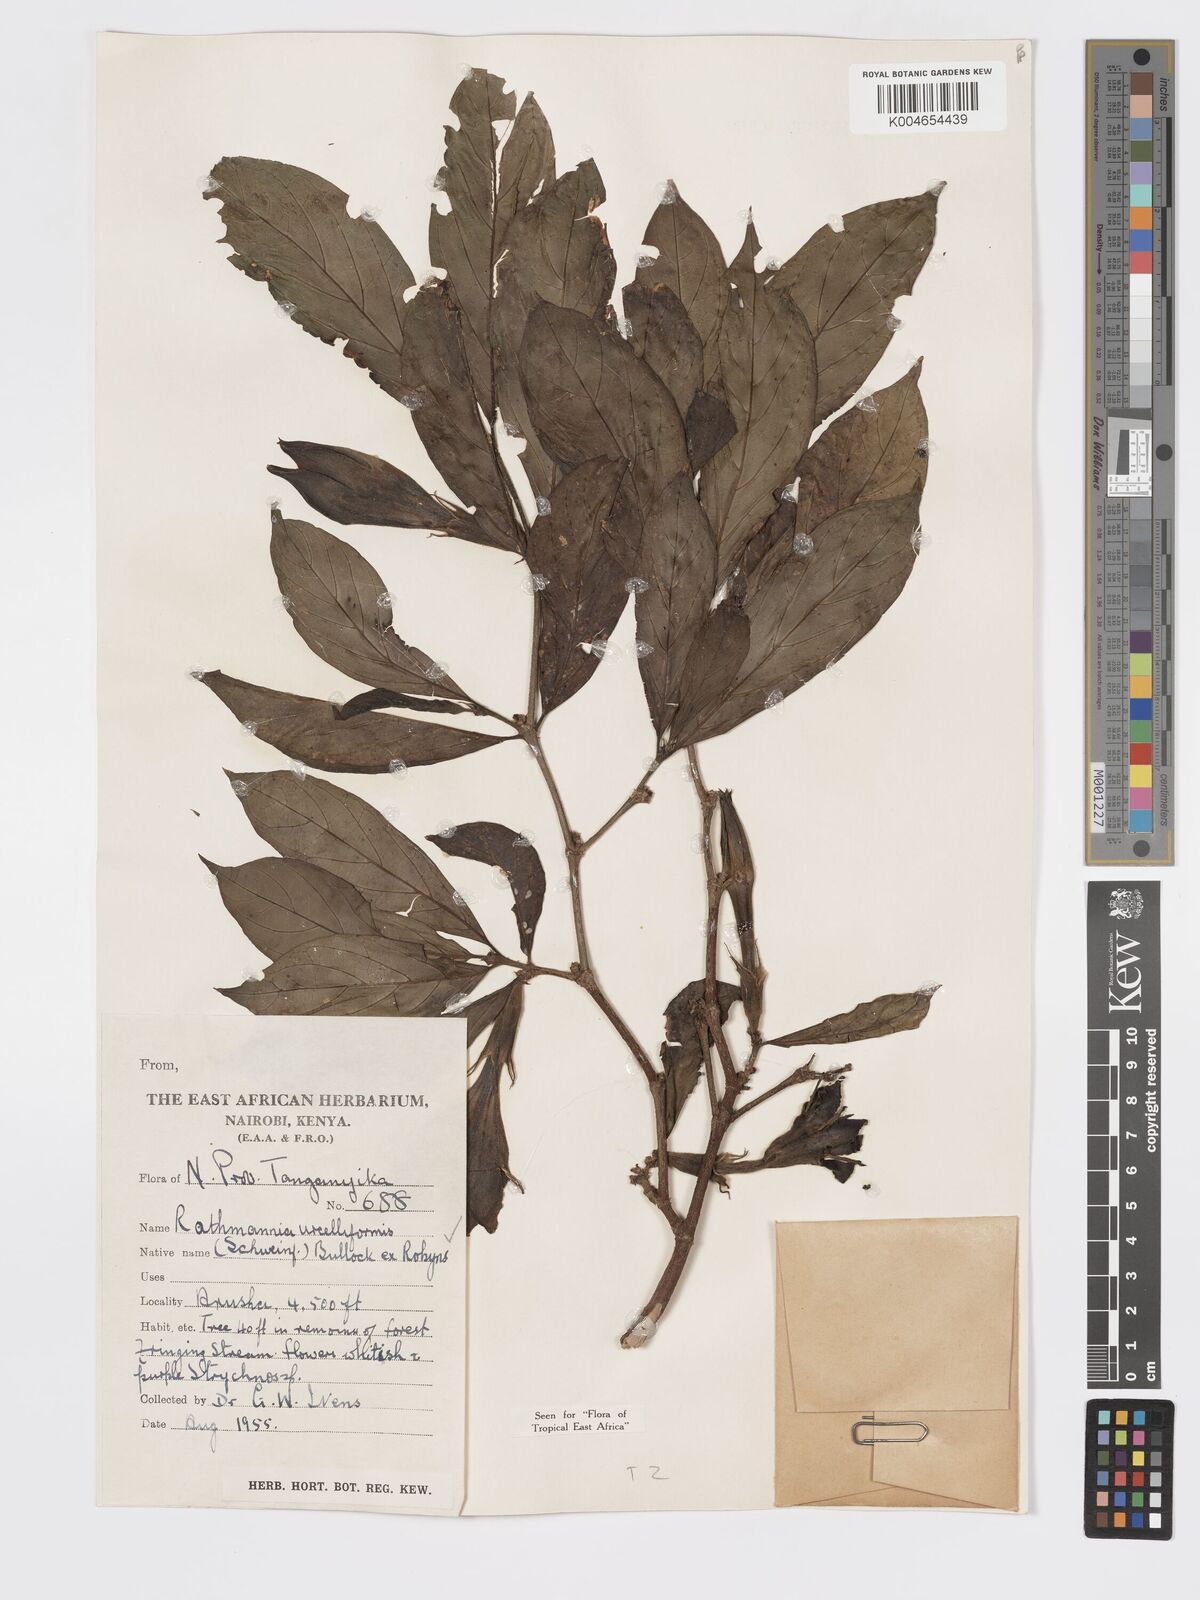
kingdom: Plantae
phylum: Tracheophyta
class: Magnoliopsida
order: Gentianales
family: Rubiaceae
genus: Rothmannia
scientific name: Rothmannia urcelliformis
